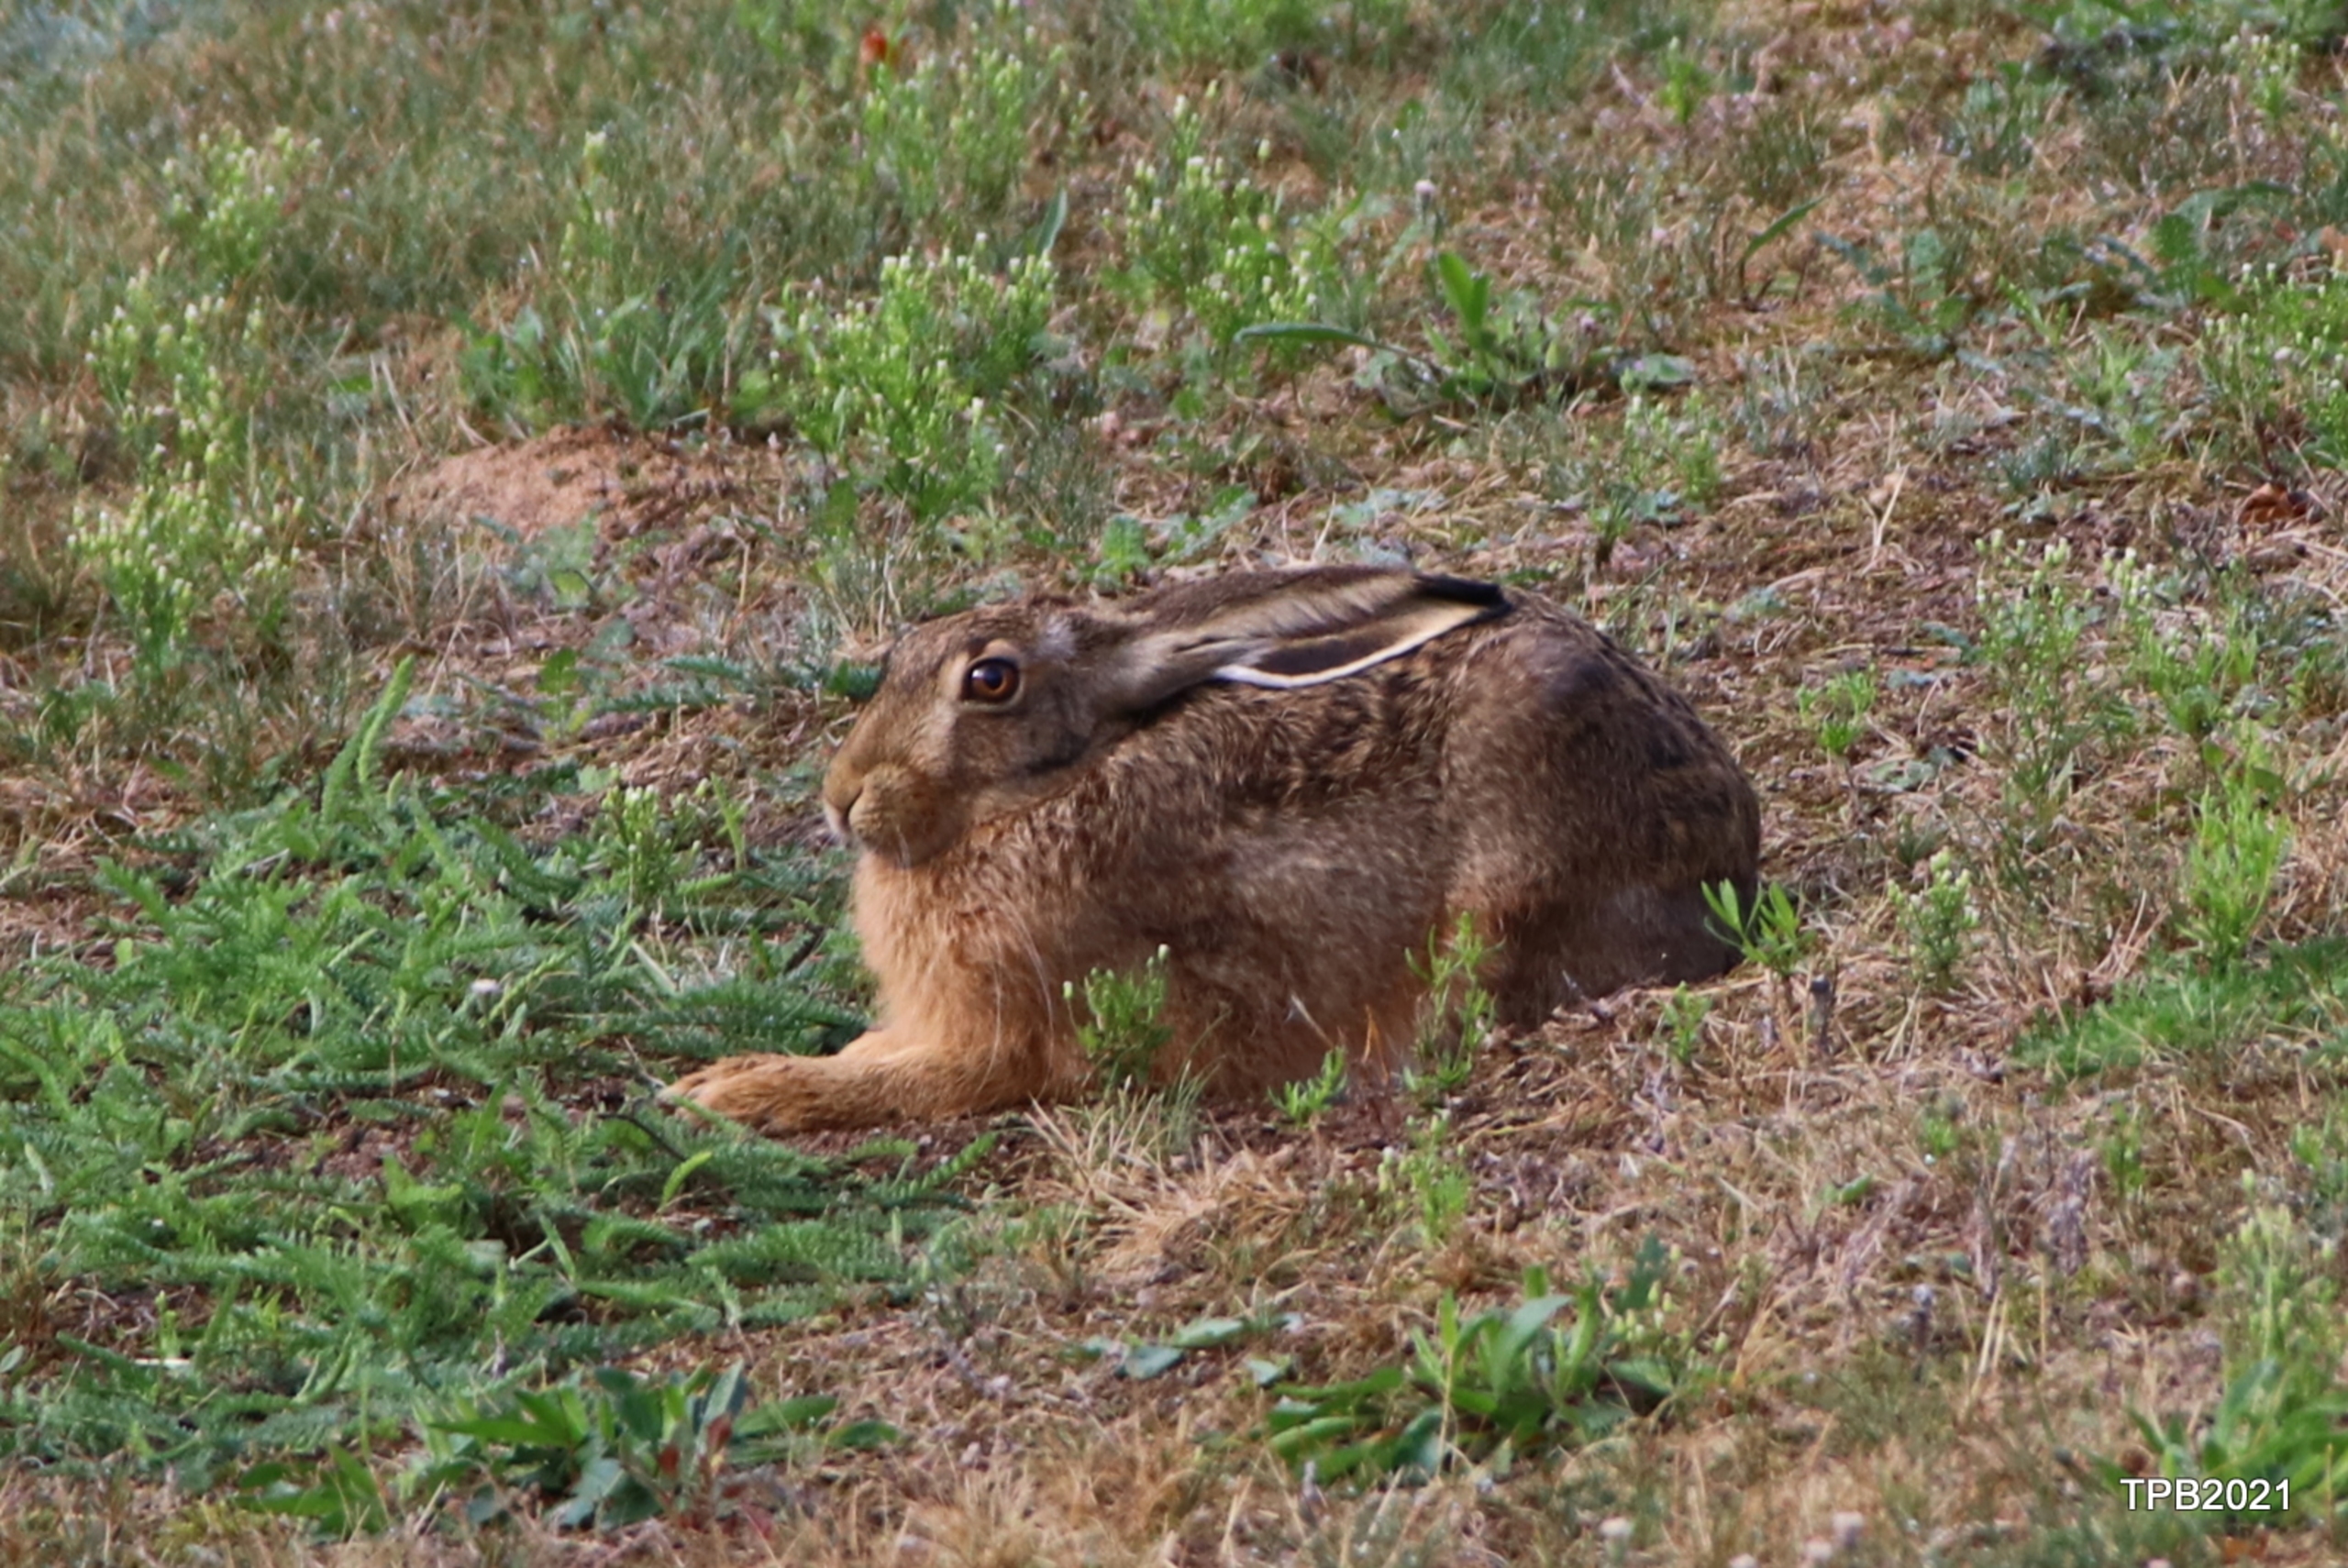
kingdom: Animalia
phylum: Chordata
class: Mammalia
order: Lagomorpha
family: Leporidae
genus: Lepus
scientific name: Lepus europaeus
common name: Hare
